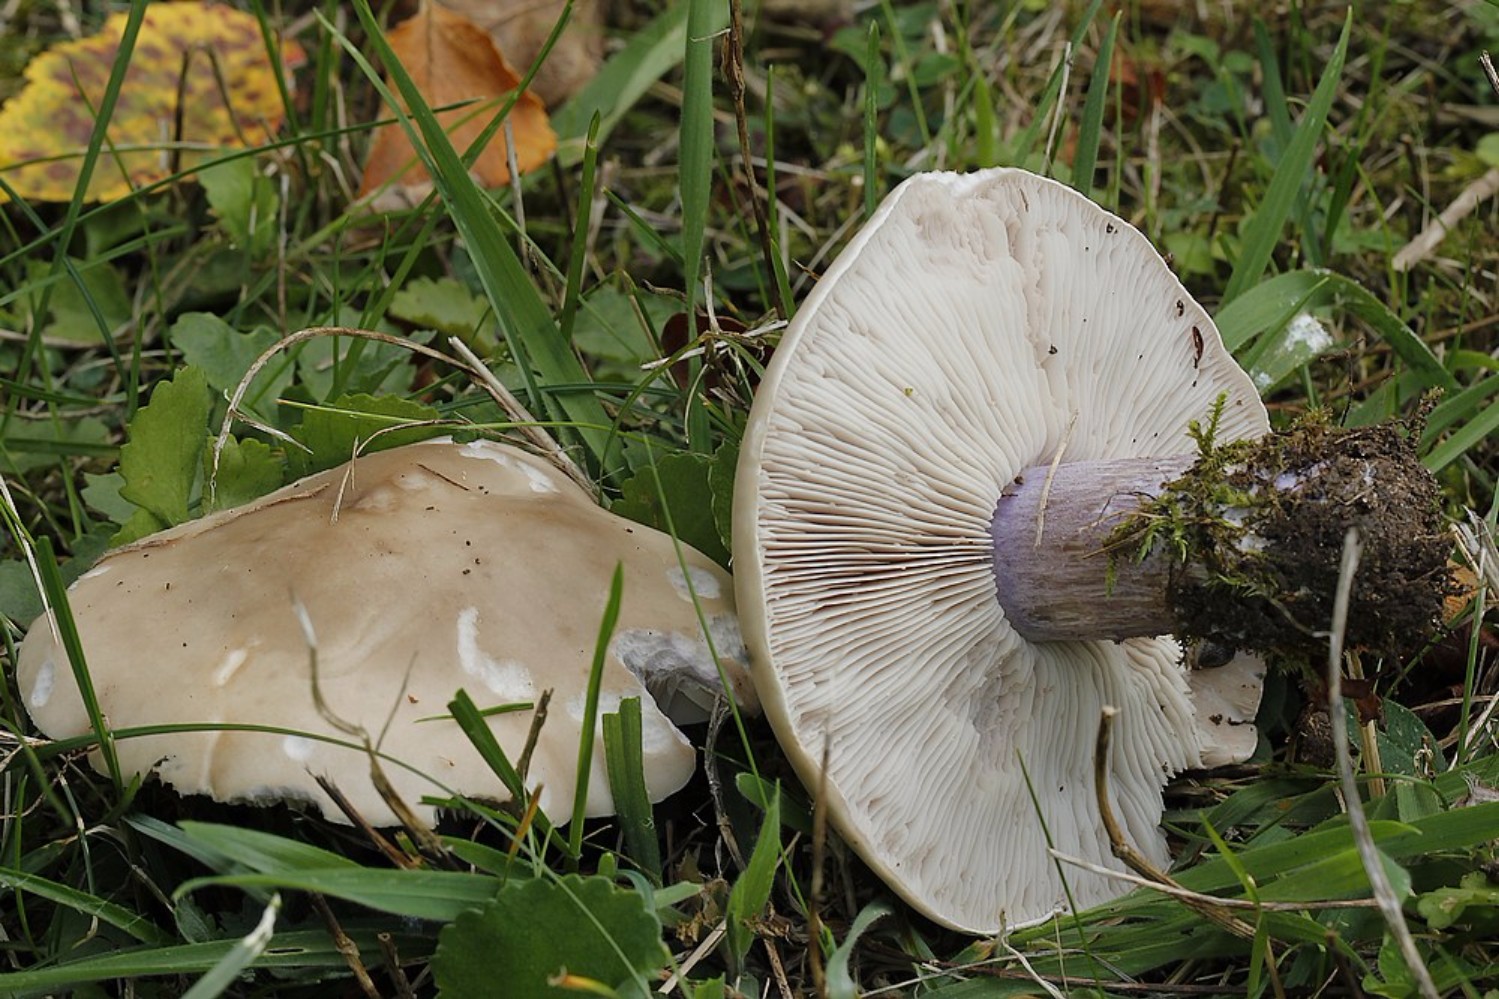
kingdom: Fungi
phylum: Basidiomycota
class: Agaricomycetes
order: Agaricales
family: Tricholomataceae
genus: Lepista
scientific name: Lepista personata
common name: bleg hekseringshat
